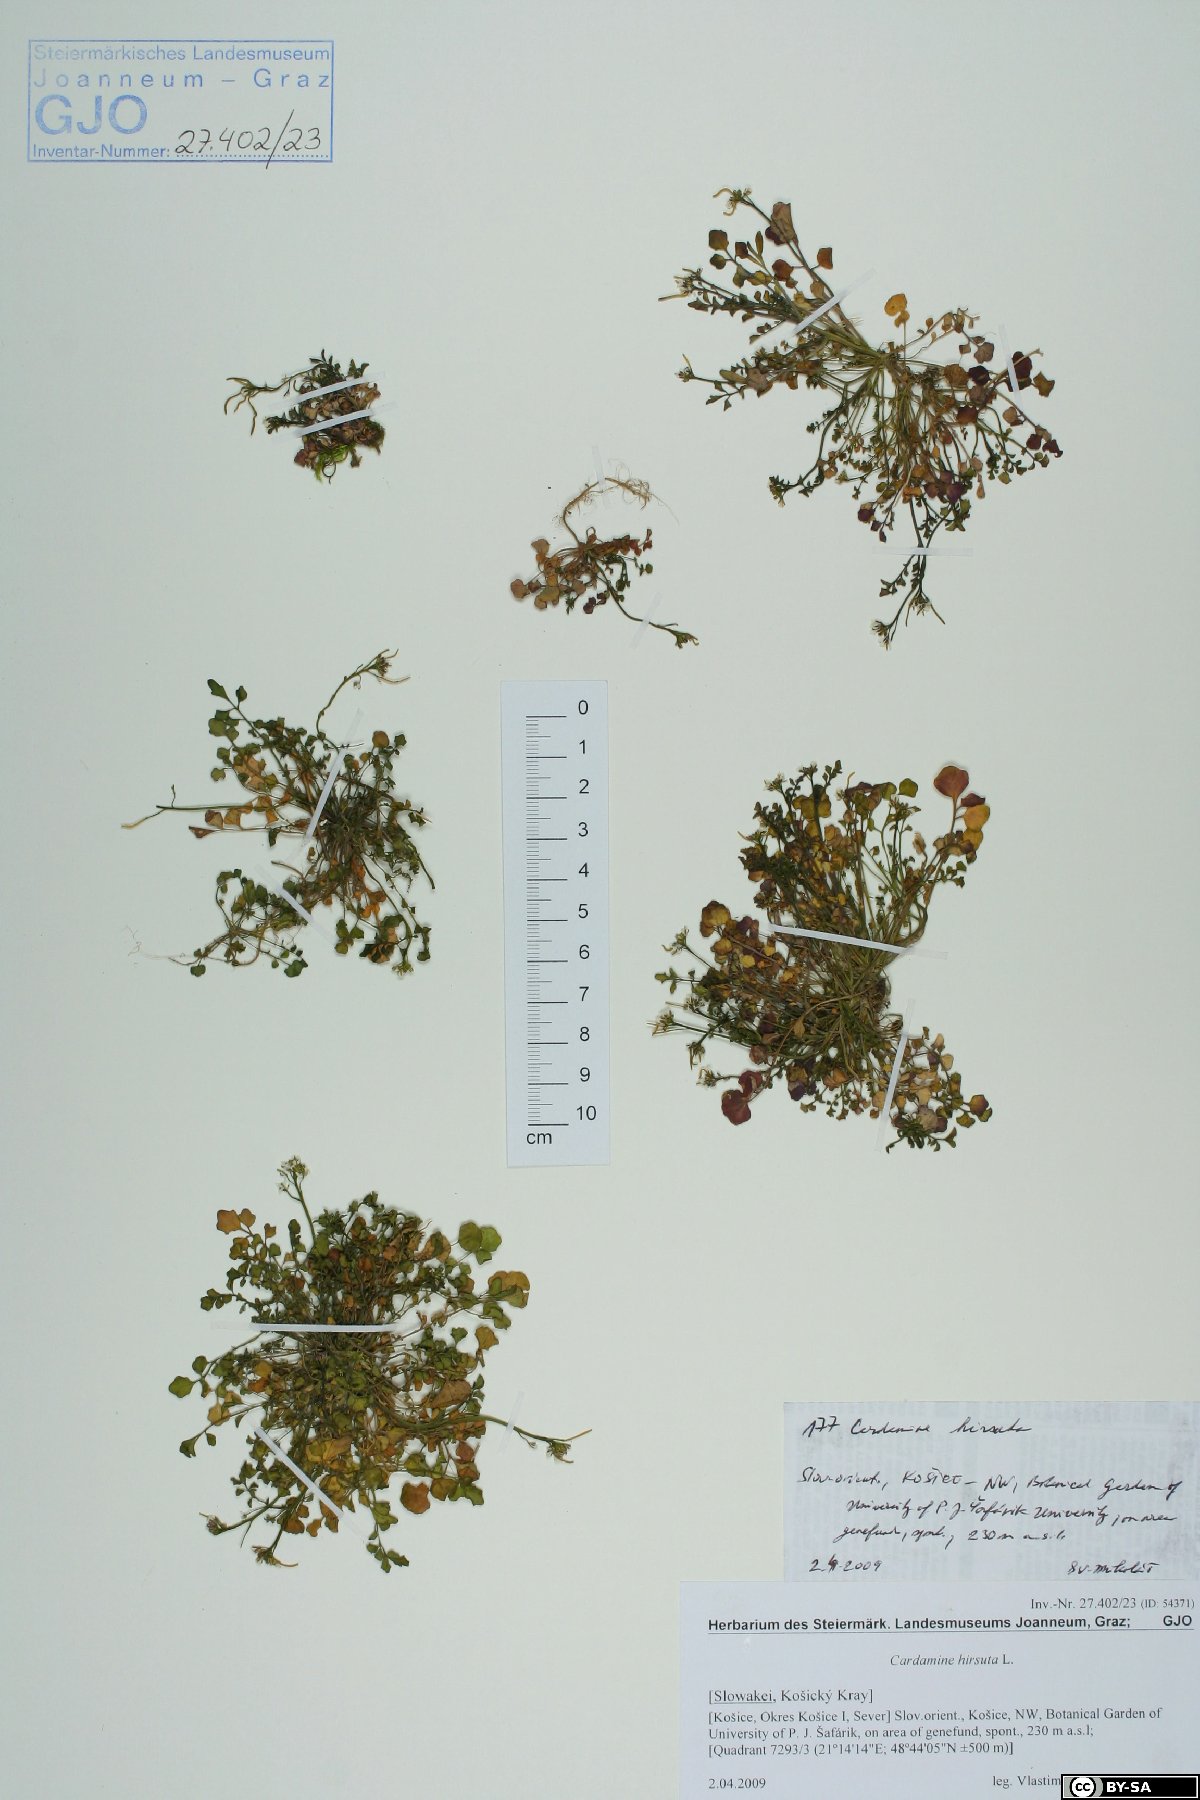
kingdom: Plantae
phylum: Tracheophyta
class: Magnoliopsida
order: Brassicales
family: Brassicaceae
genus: Cardamine
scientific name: Cardamine hirsuta
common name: Hairy bittercress
